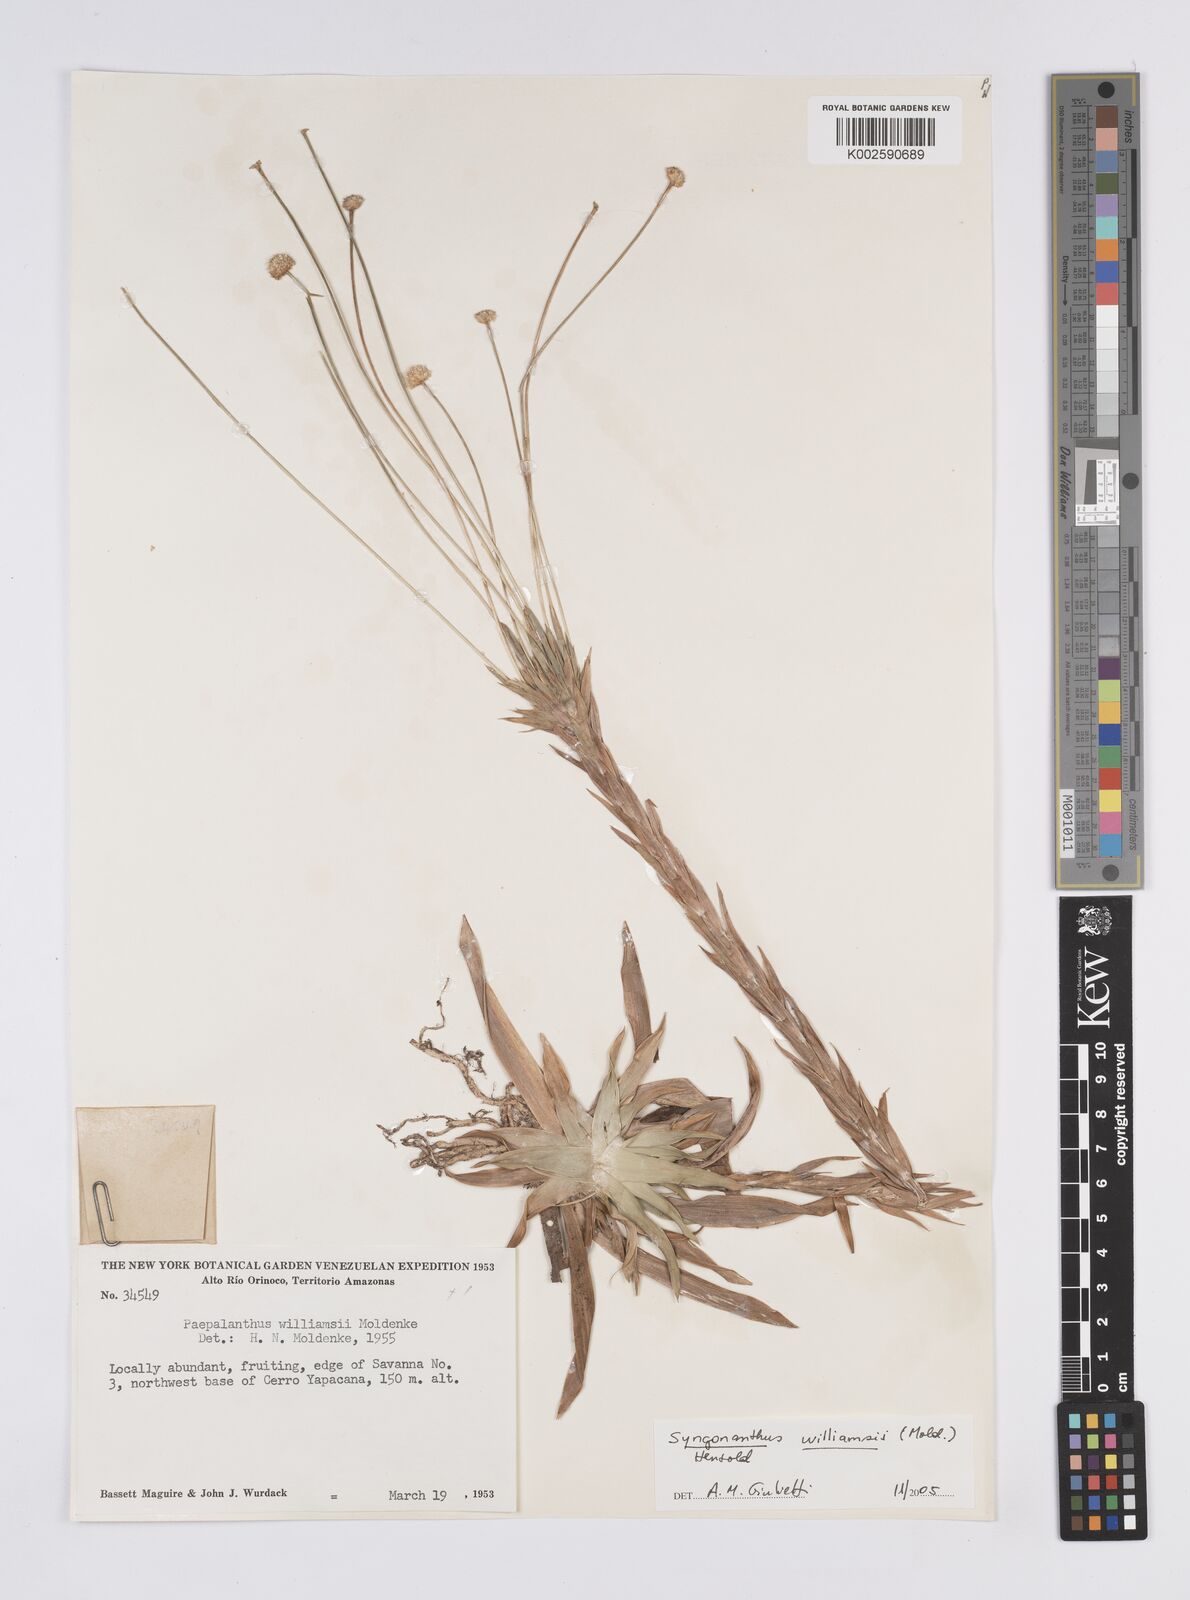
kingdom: Plantae
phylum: Tracheophyta
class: Liliopsida
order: Poales
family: Eriocaulaceae
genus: Syngonanthus
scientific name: Syngonanthus williamsii
